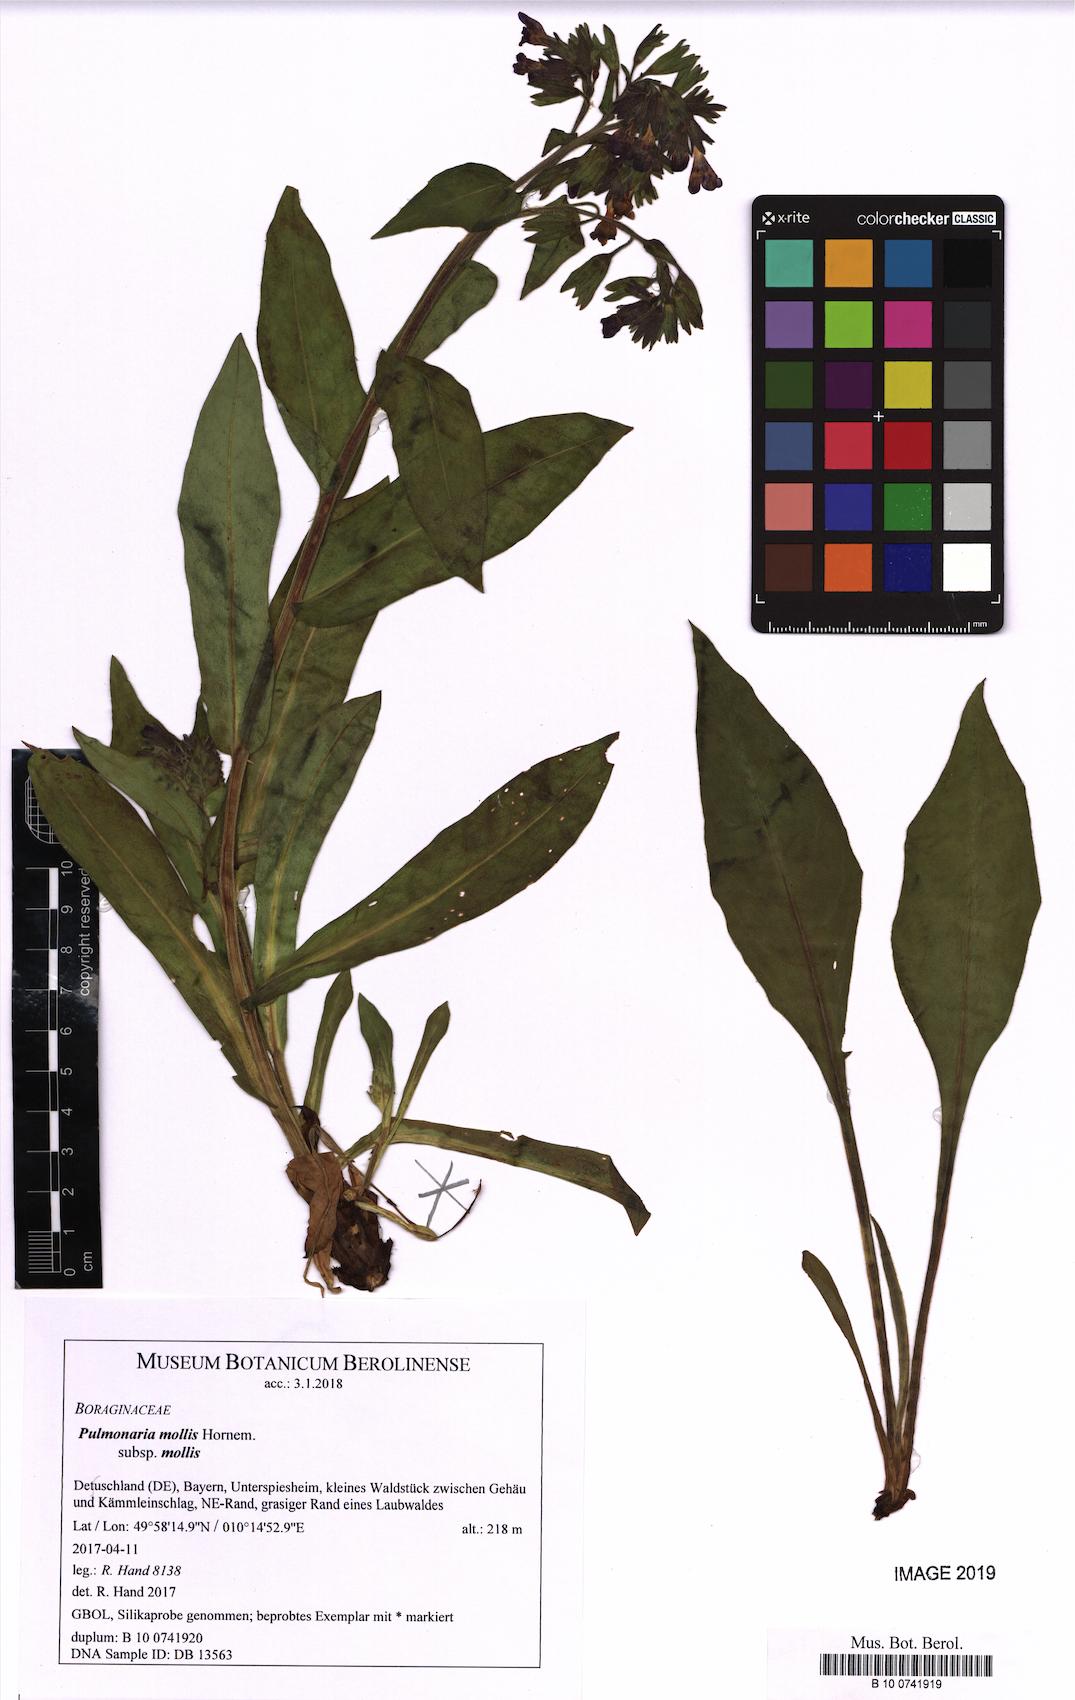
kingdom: Plantae
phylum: Tracheophyta
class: Magnoliopsida
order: Boraginales
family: Boraginaceae
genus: Pulmonaria
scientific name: Pulmonaria mollis
